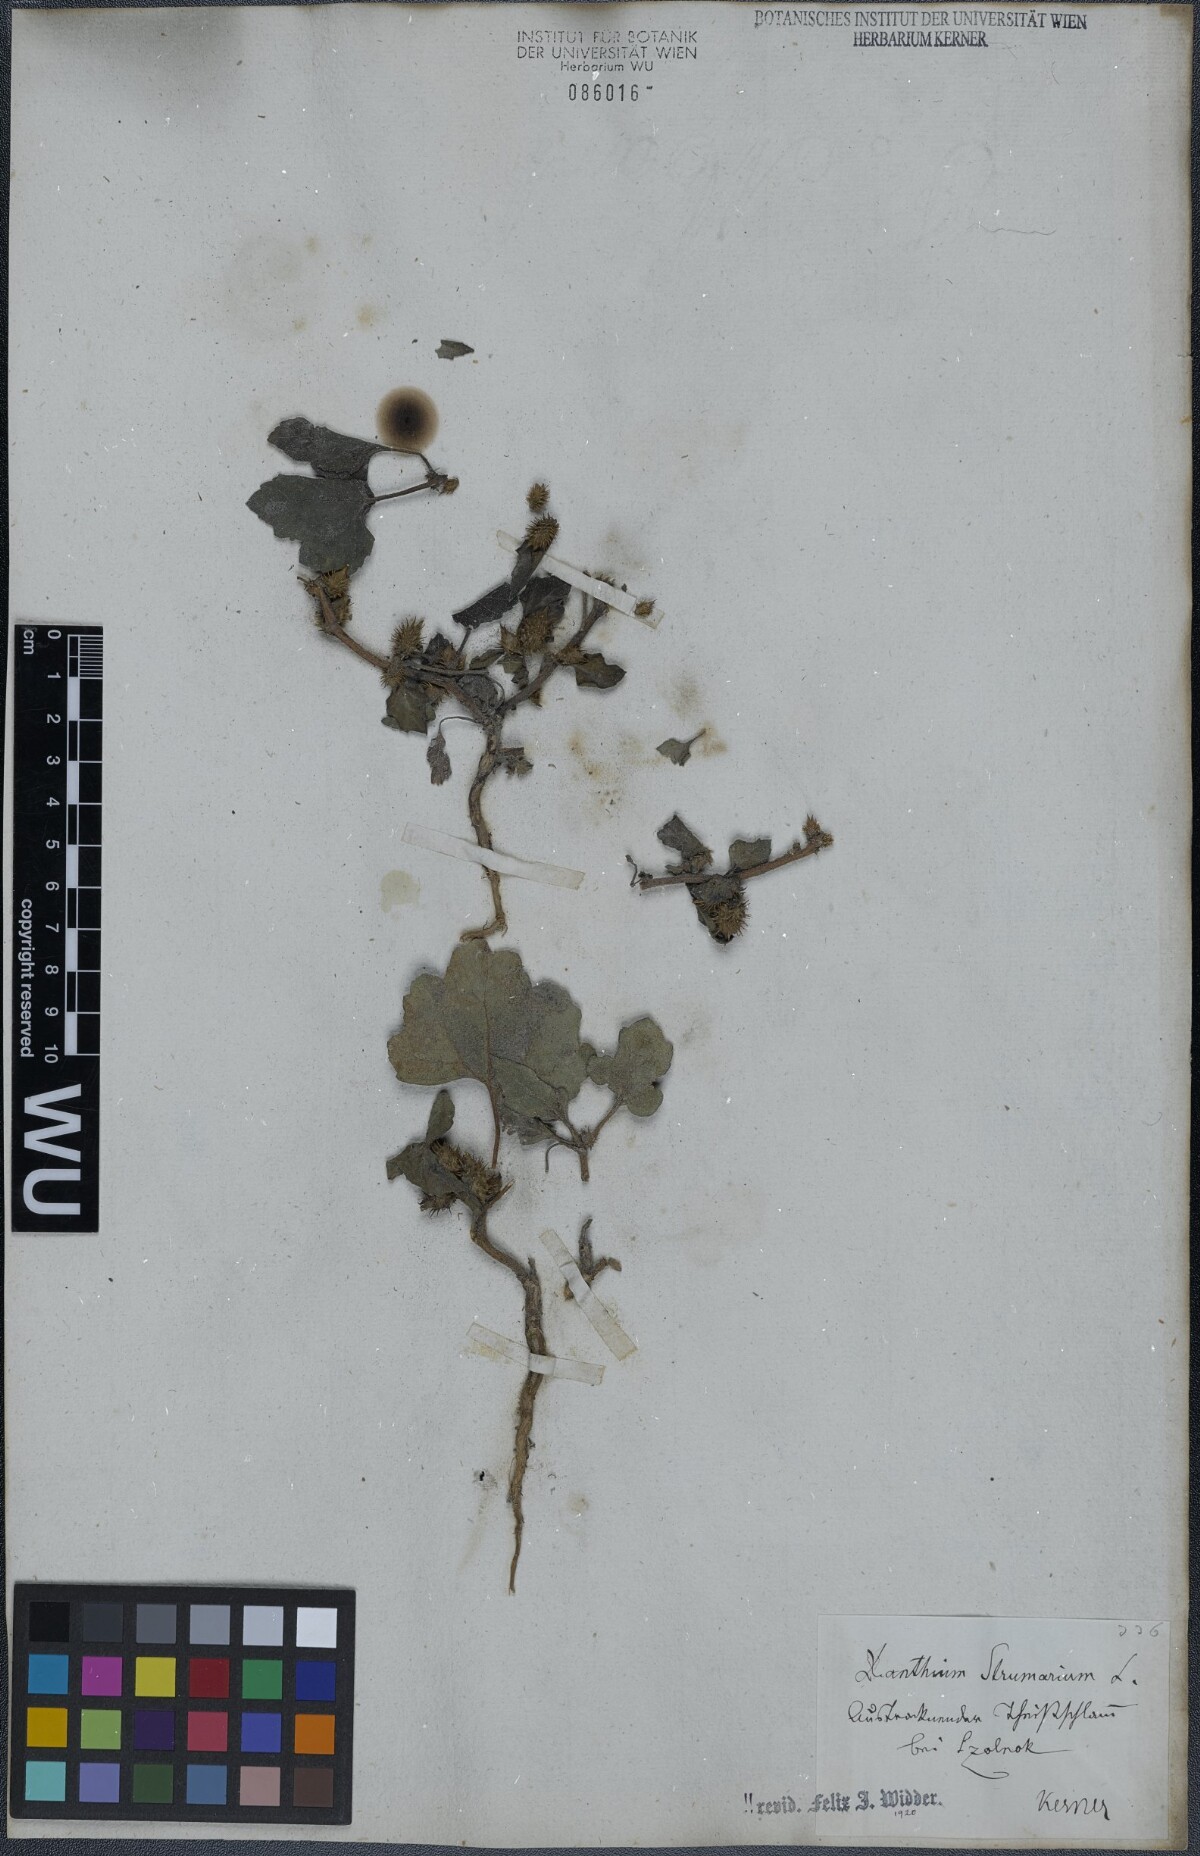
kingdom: Plantae
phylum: Tracheophyta
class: Magnoliopsida
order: Asterales
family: Asteraceae
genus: Xanthium
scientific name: Xanthium strumarium
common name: Rough cocklebur
